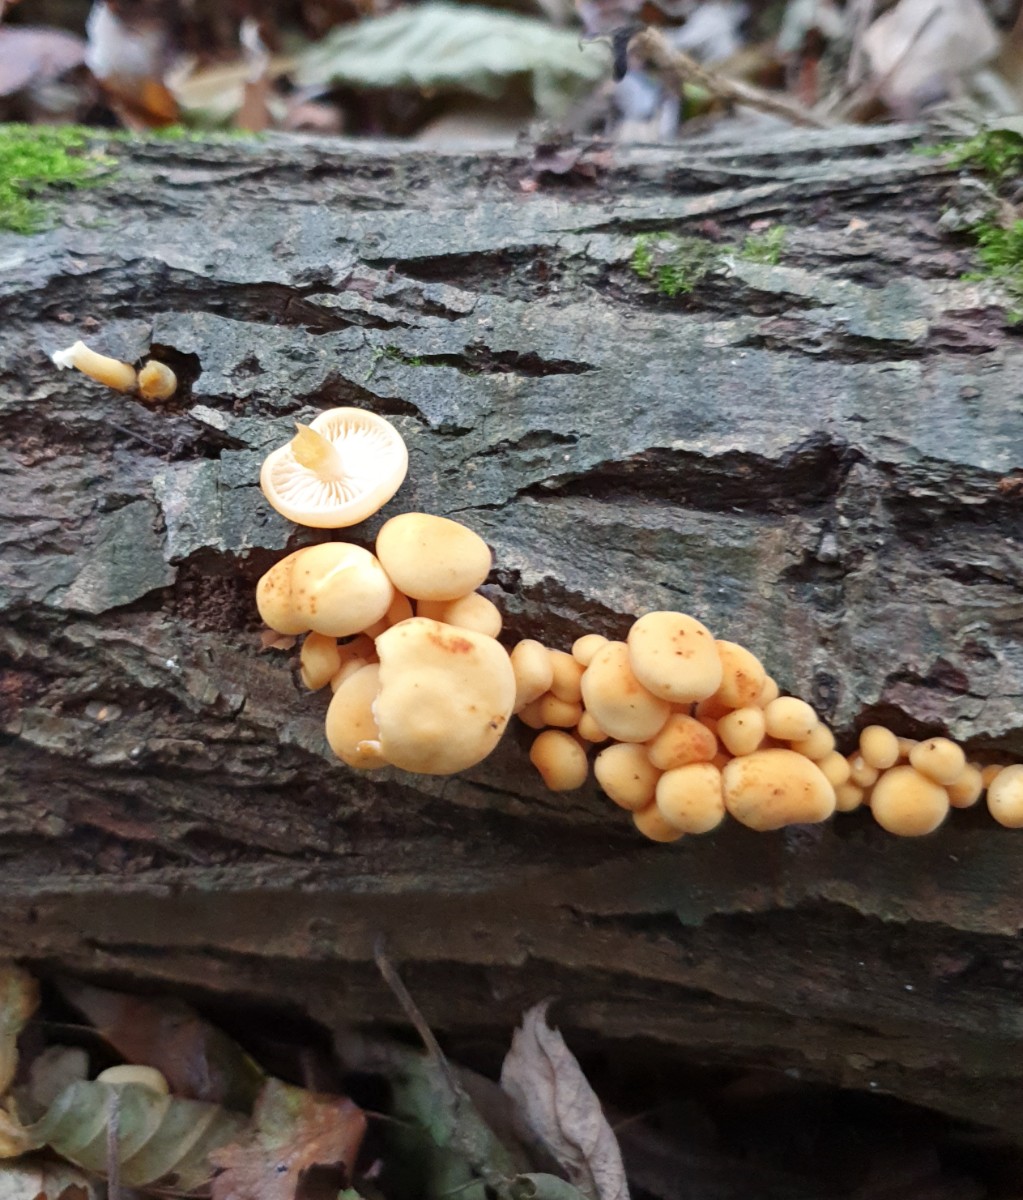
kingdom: Fungi
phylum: Basidiomycota
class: Agaricomycetes
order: Agaricales
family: Physalacriaceae
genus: Flammulina
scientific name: Flammulina elastica
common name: pile-fløjlsfod
